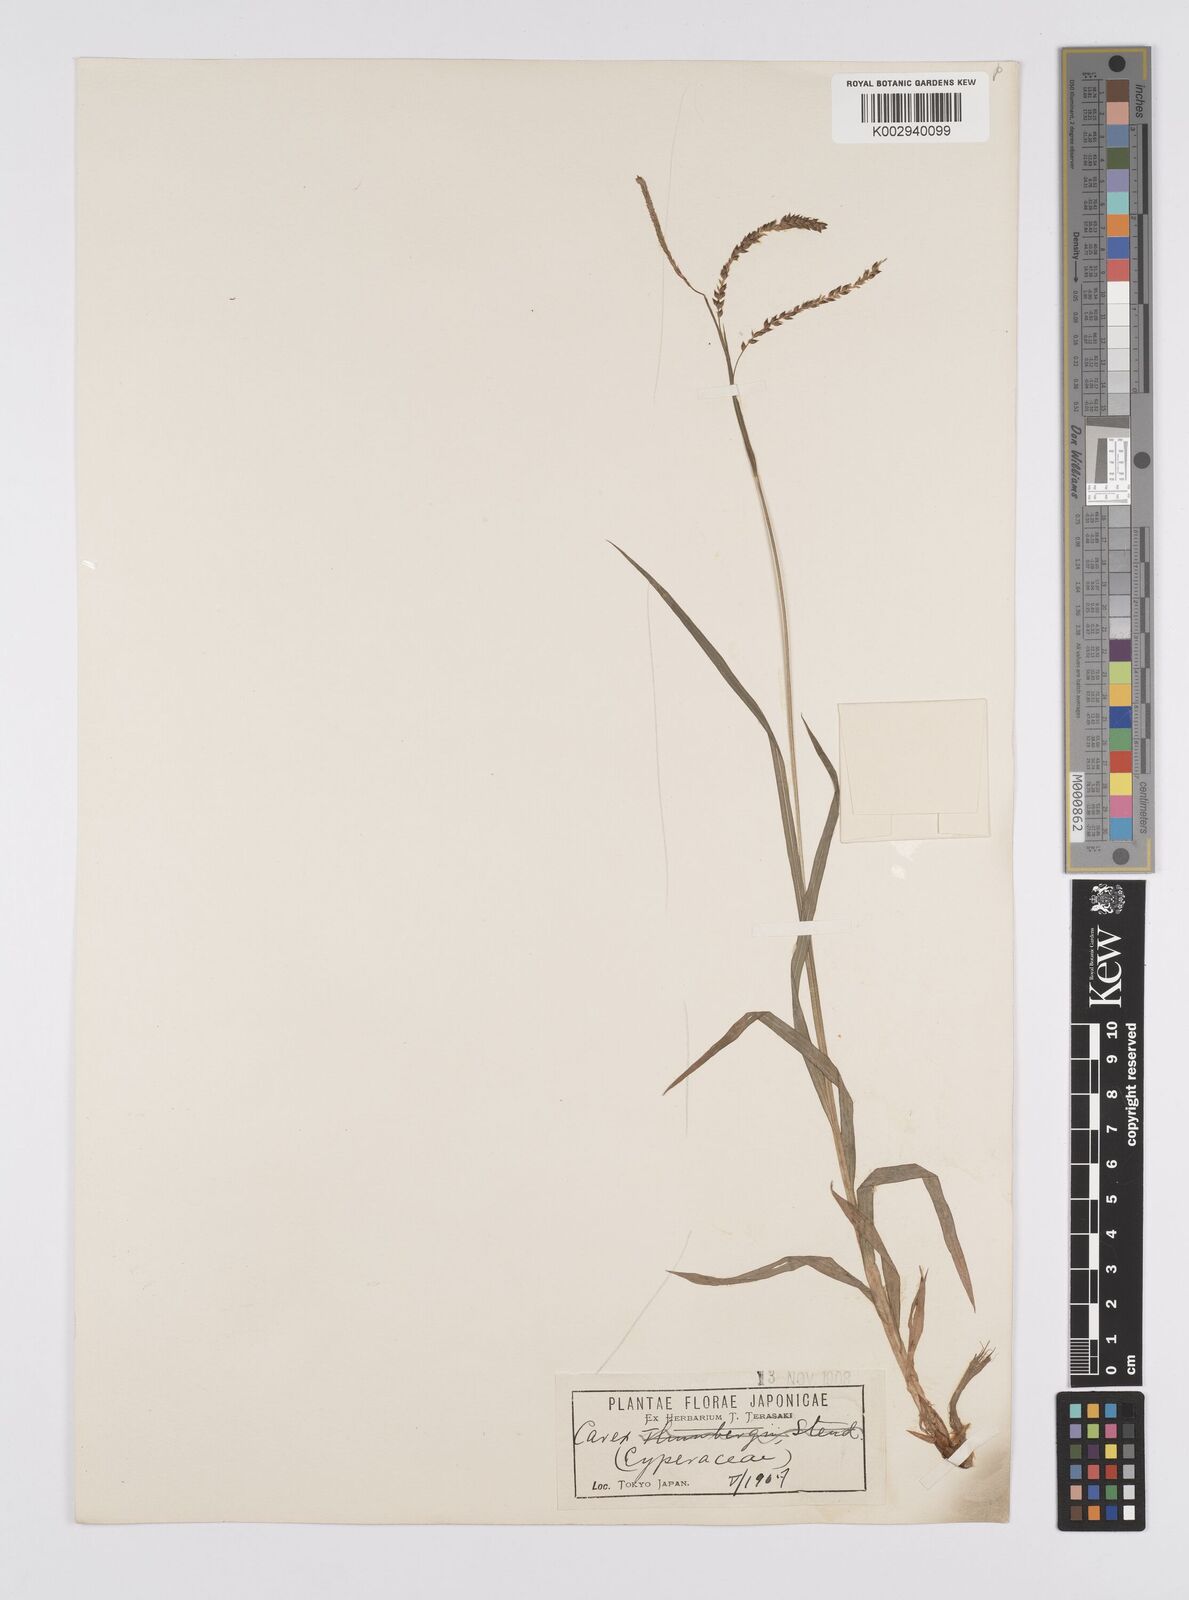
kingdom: Plantae
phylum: Tracheophyta
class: Liliopsida
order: Poales
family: Cyperaceae
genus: Carex
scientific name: Carex thunbergii
